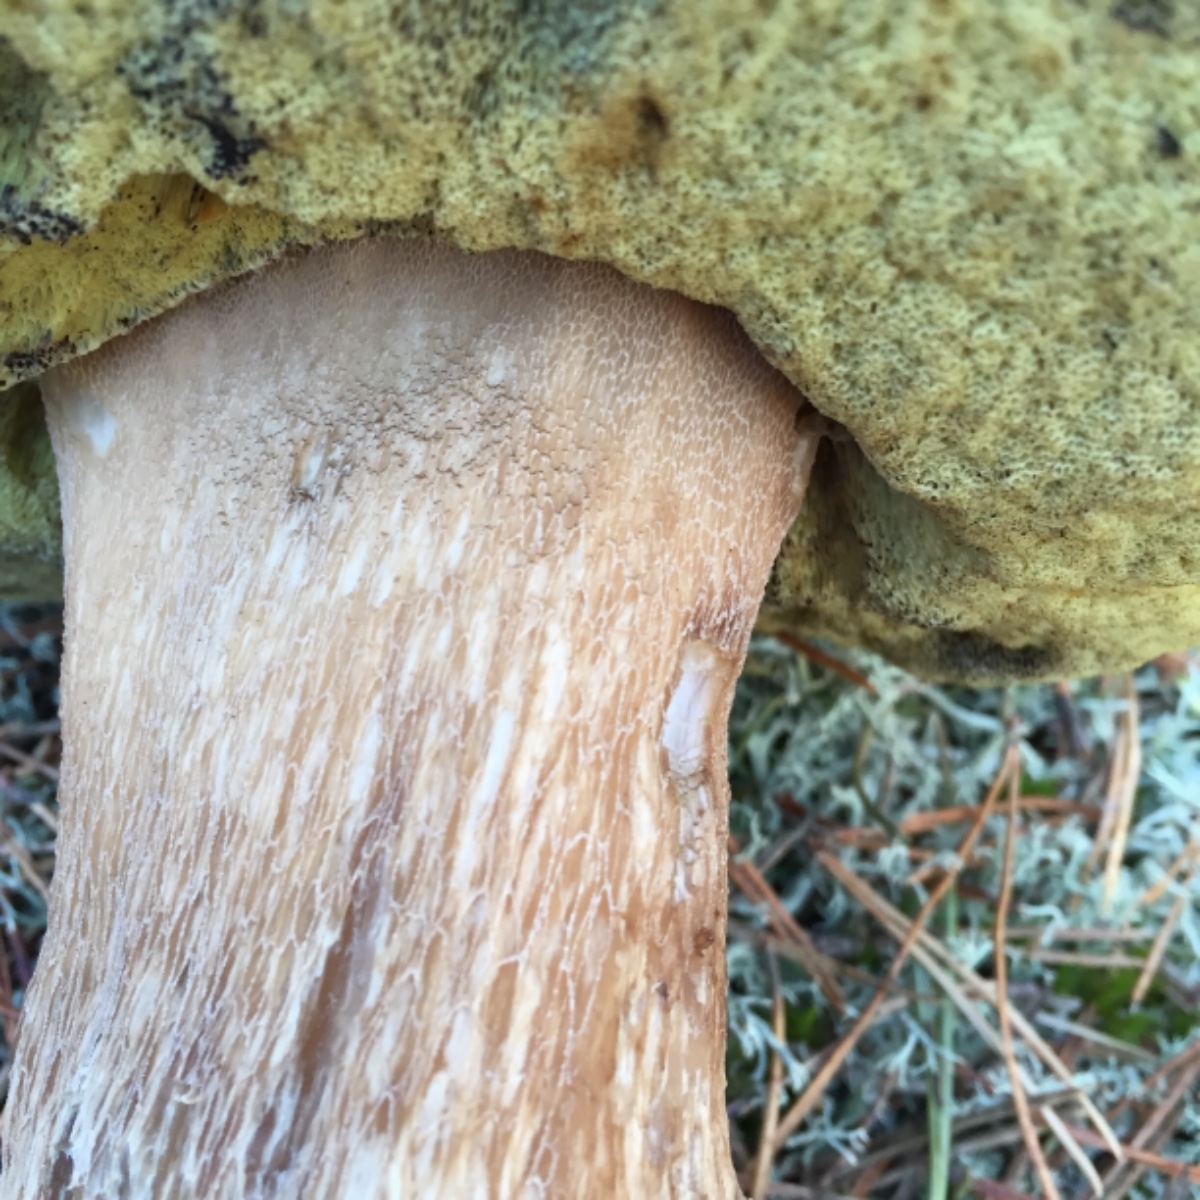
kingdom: Fungi
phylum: Basidiomycota
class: Agaricomycetes
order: Boletales
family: Boletaceae
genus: Boletus
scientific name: Boletus edulis
